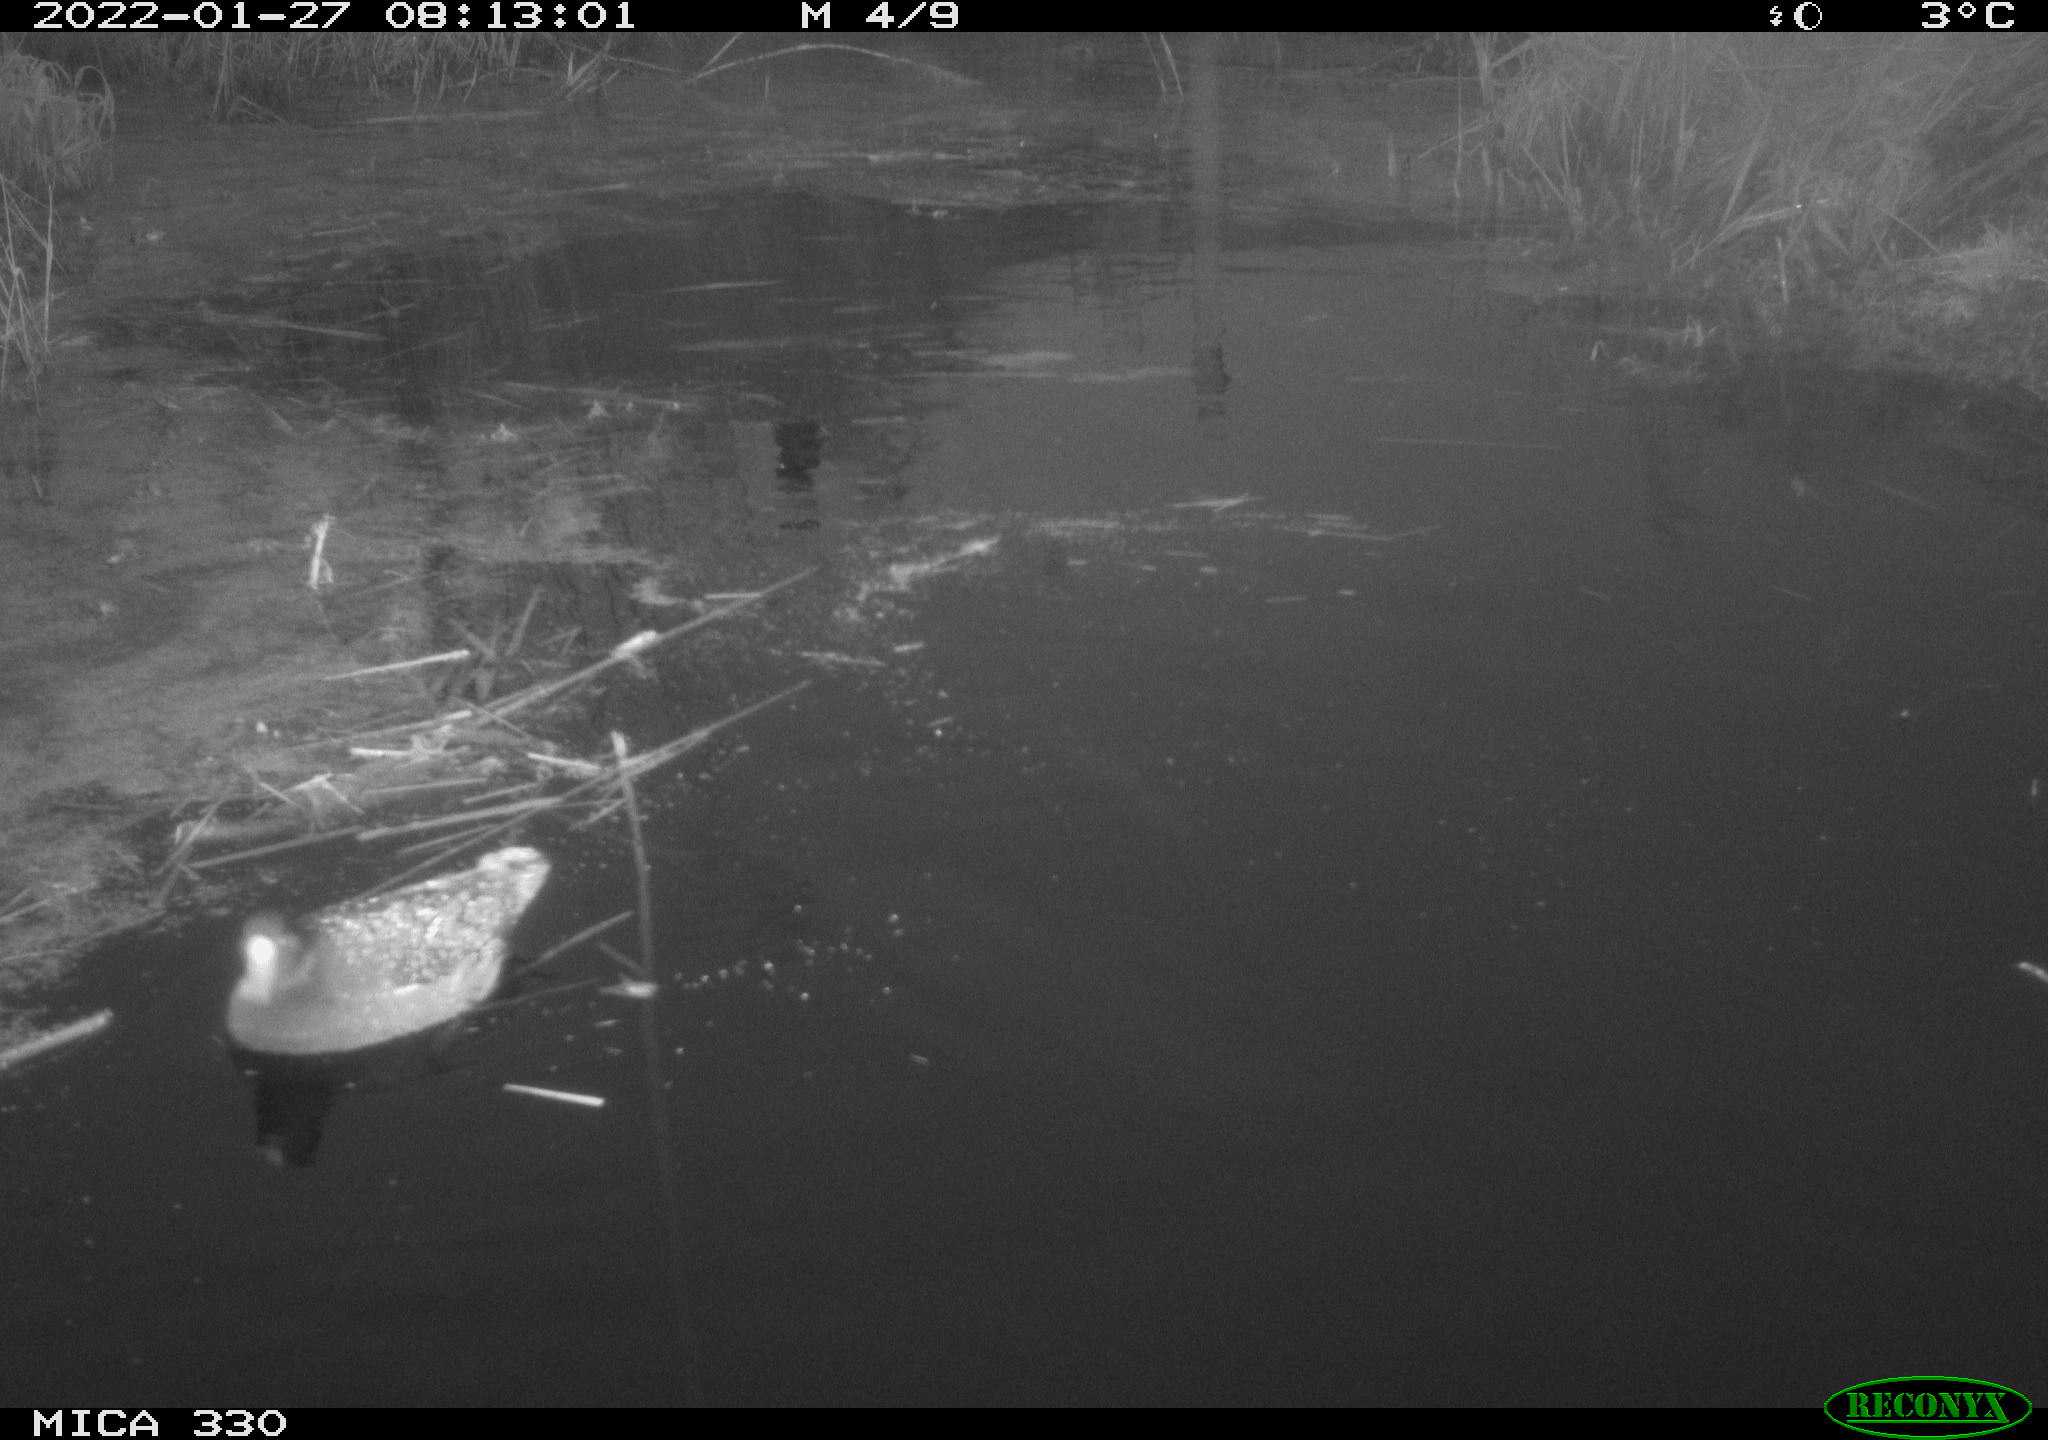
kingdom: Animalia
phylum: Chordata
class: Aves
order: Gruiformes
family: Rallidae
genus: Gallinula
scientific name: Gallinula chloropus
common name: Common moorhen
